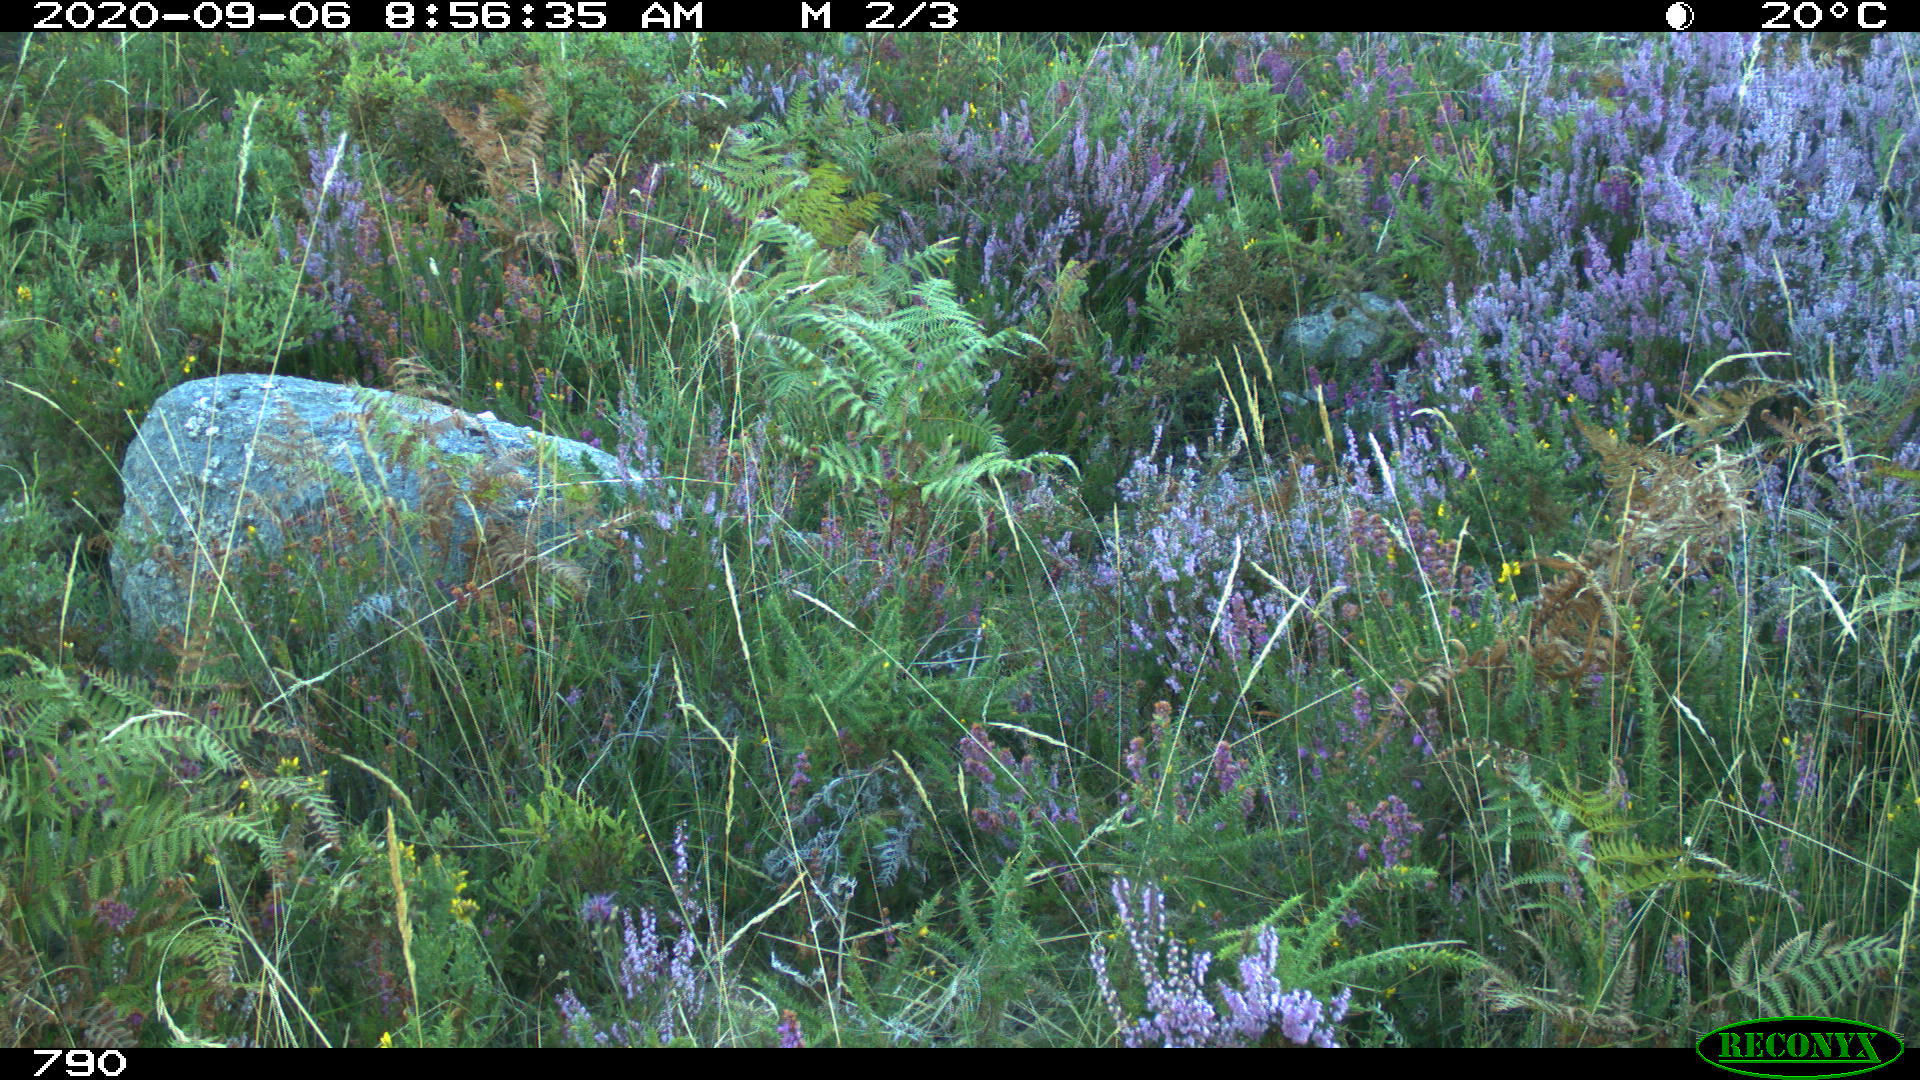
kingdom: Animalia
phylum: Chordata
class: Mammalia
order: Artiodactyla
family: Bovidae
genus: Bos
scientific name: Bos taurus
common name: Domesticated cattle
